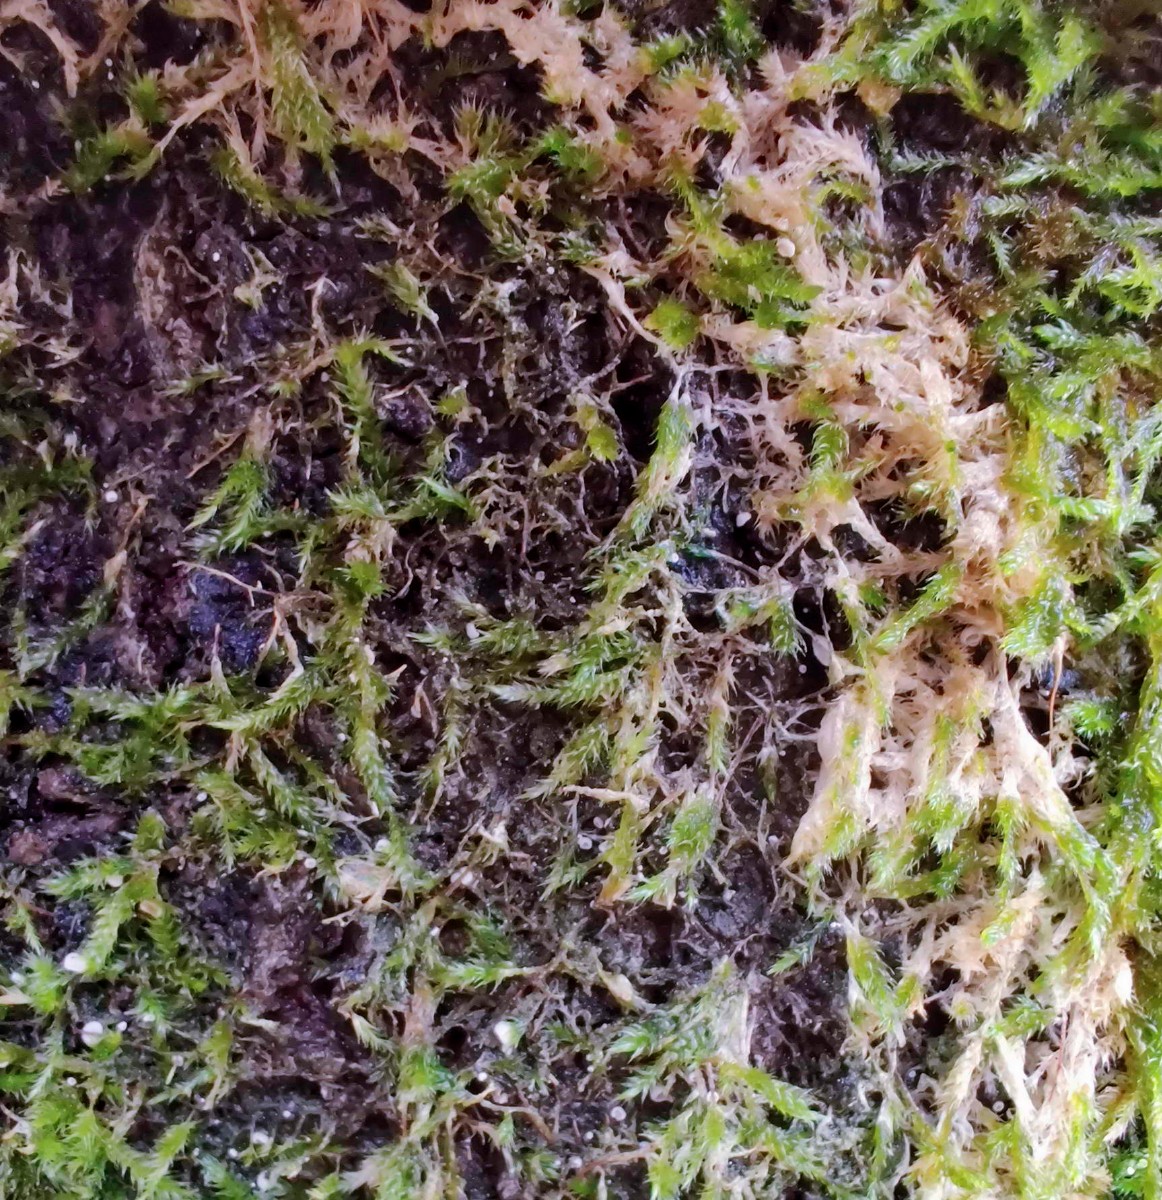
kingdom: Fungi
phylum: Basidiomycota
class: Agaricomycetes
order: Agaricales
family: Chromocyphellaceae
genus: Chromocyphella
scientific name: Chromocyphella muscicola
